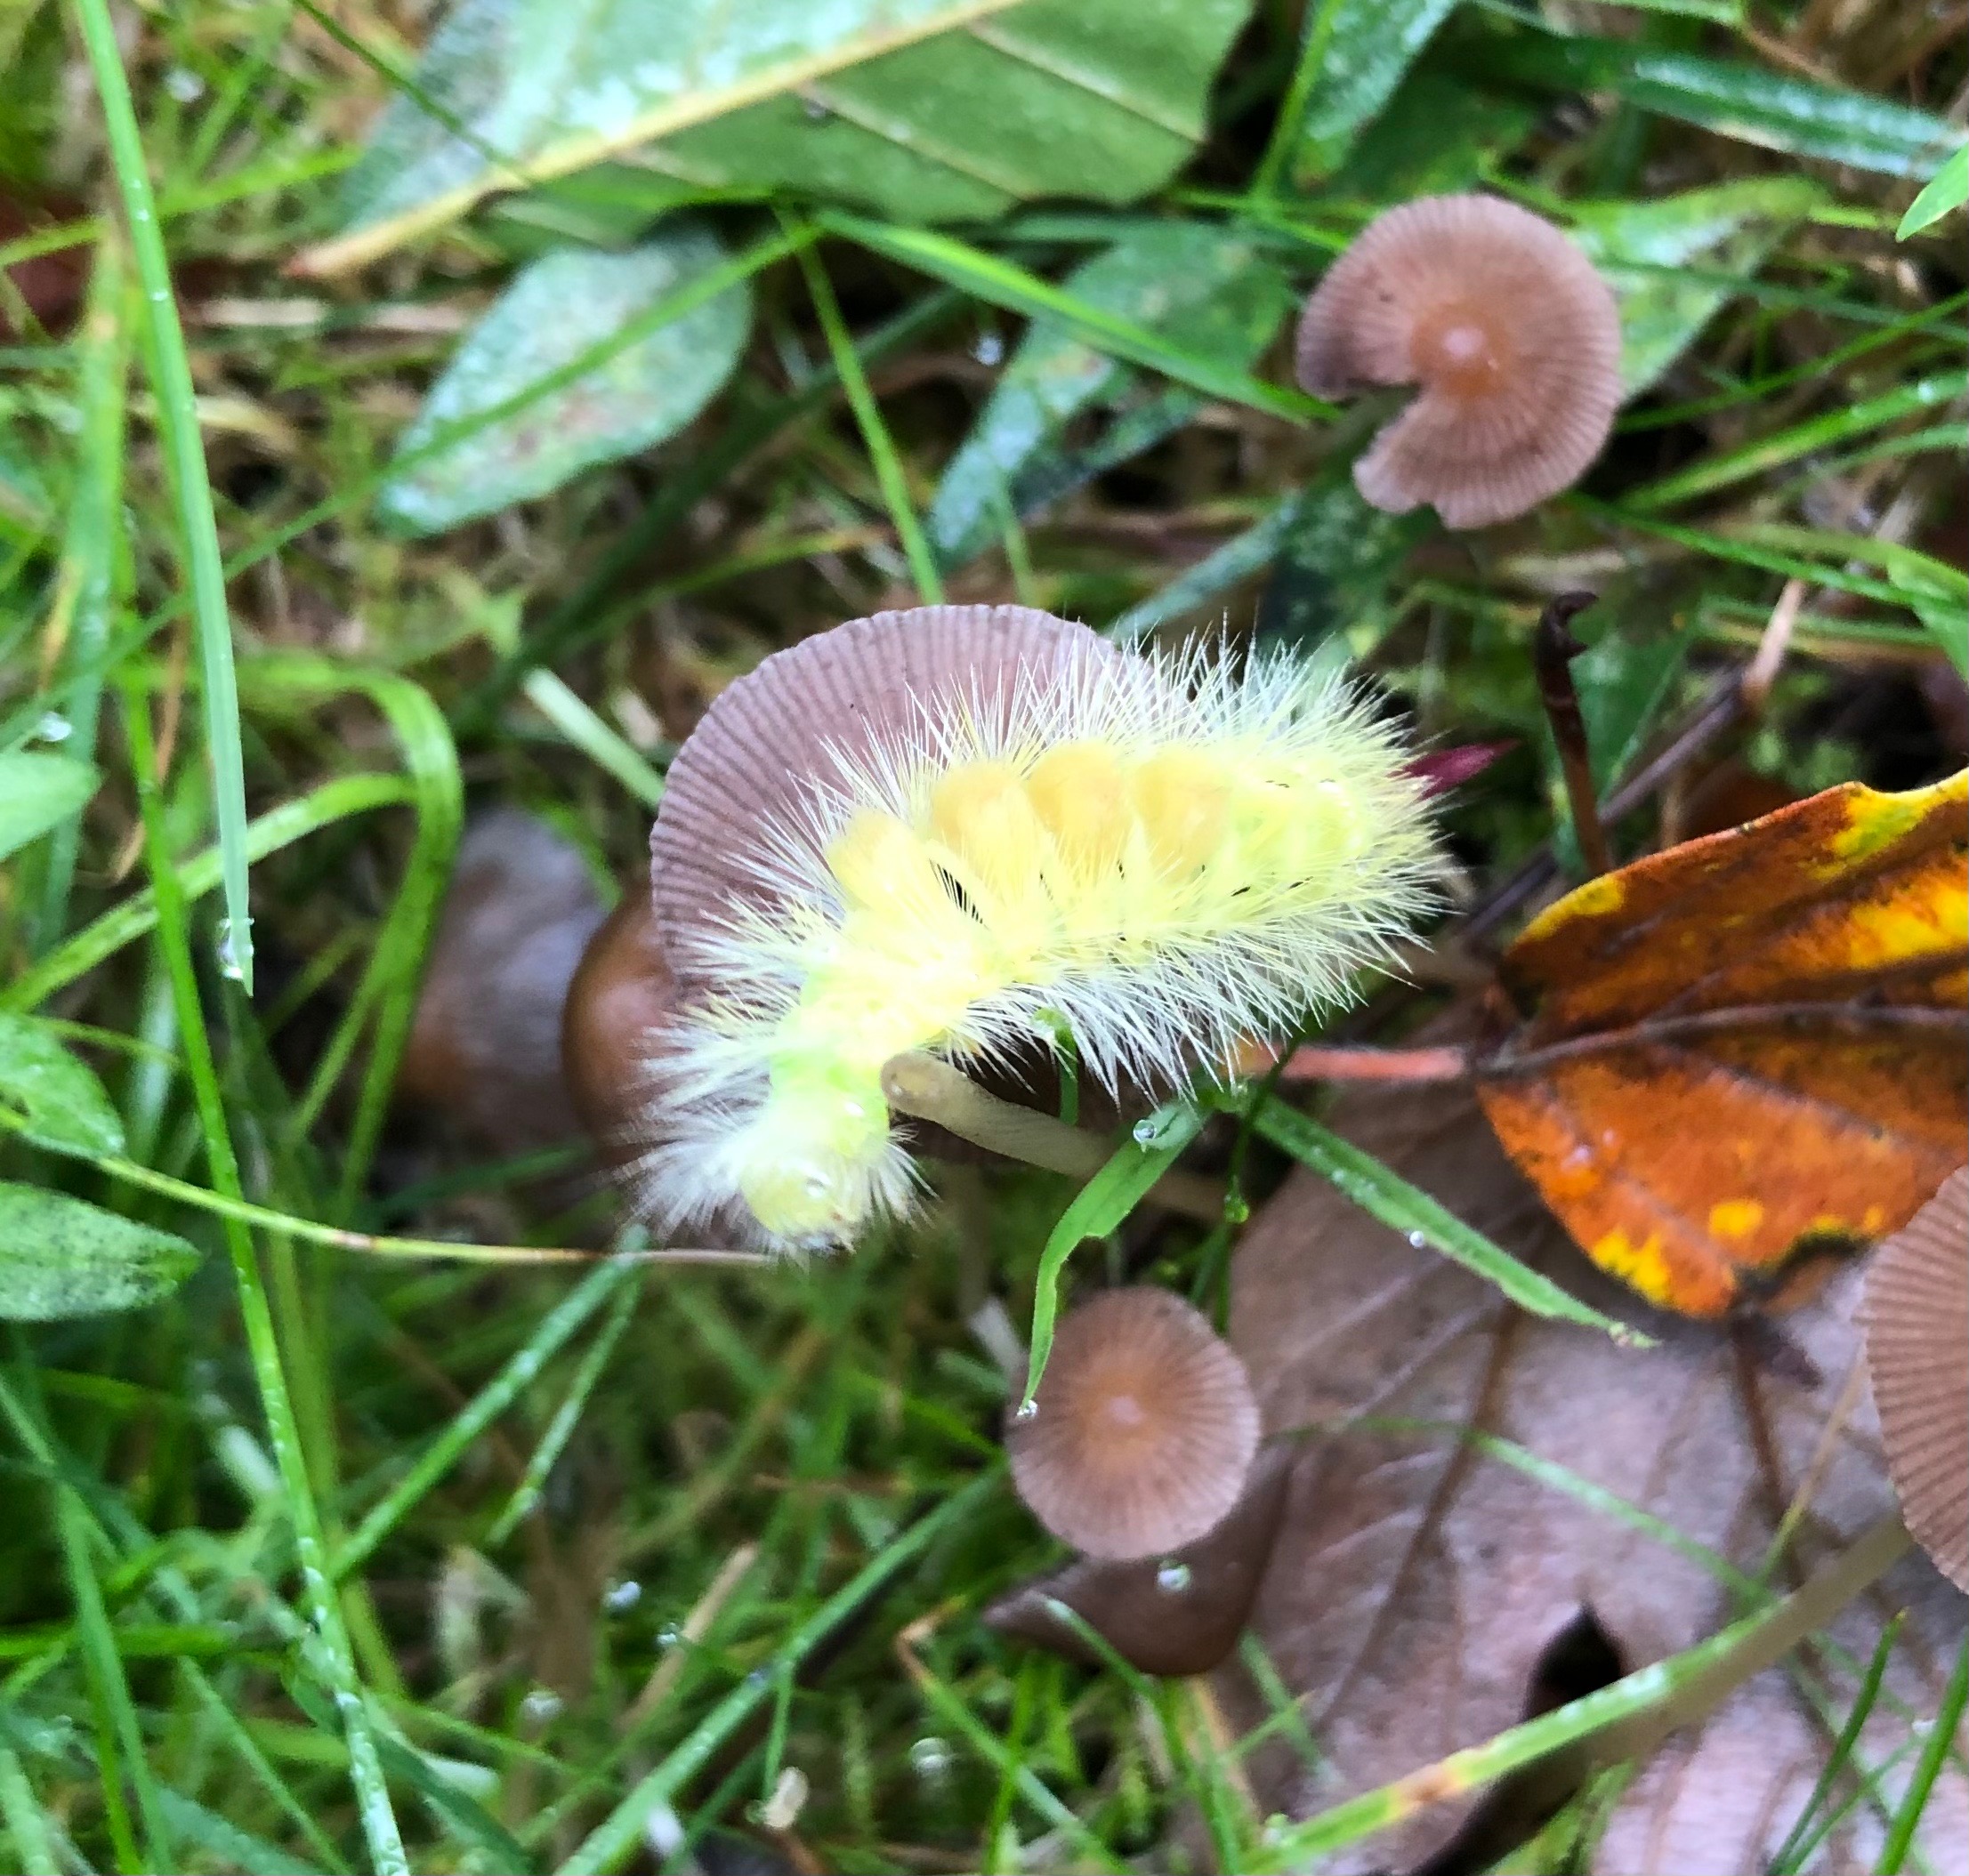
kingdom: Animalia
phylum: Arthropoda
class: Insecta
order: Lepidoptera
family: Erebidae
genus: Calliteara
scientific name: Calliteara pudibunda
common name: Bøgenonne
